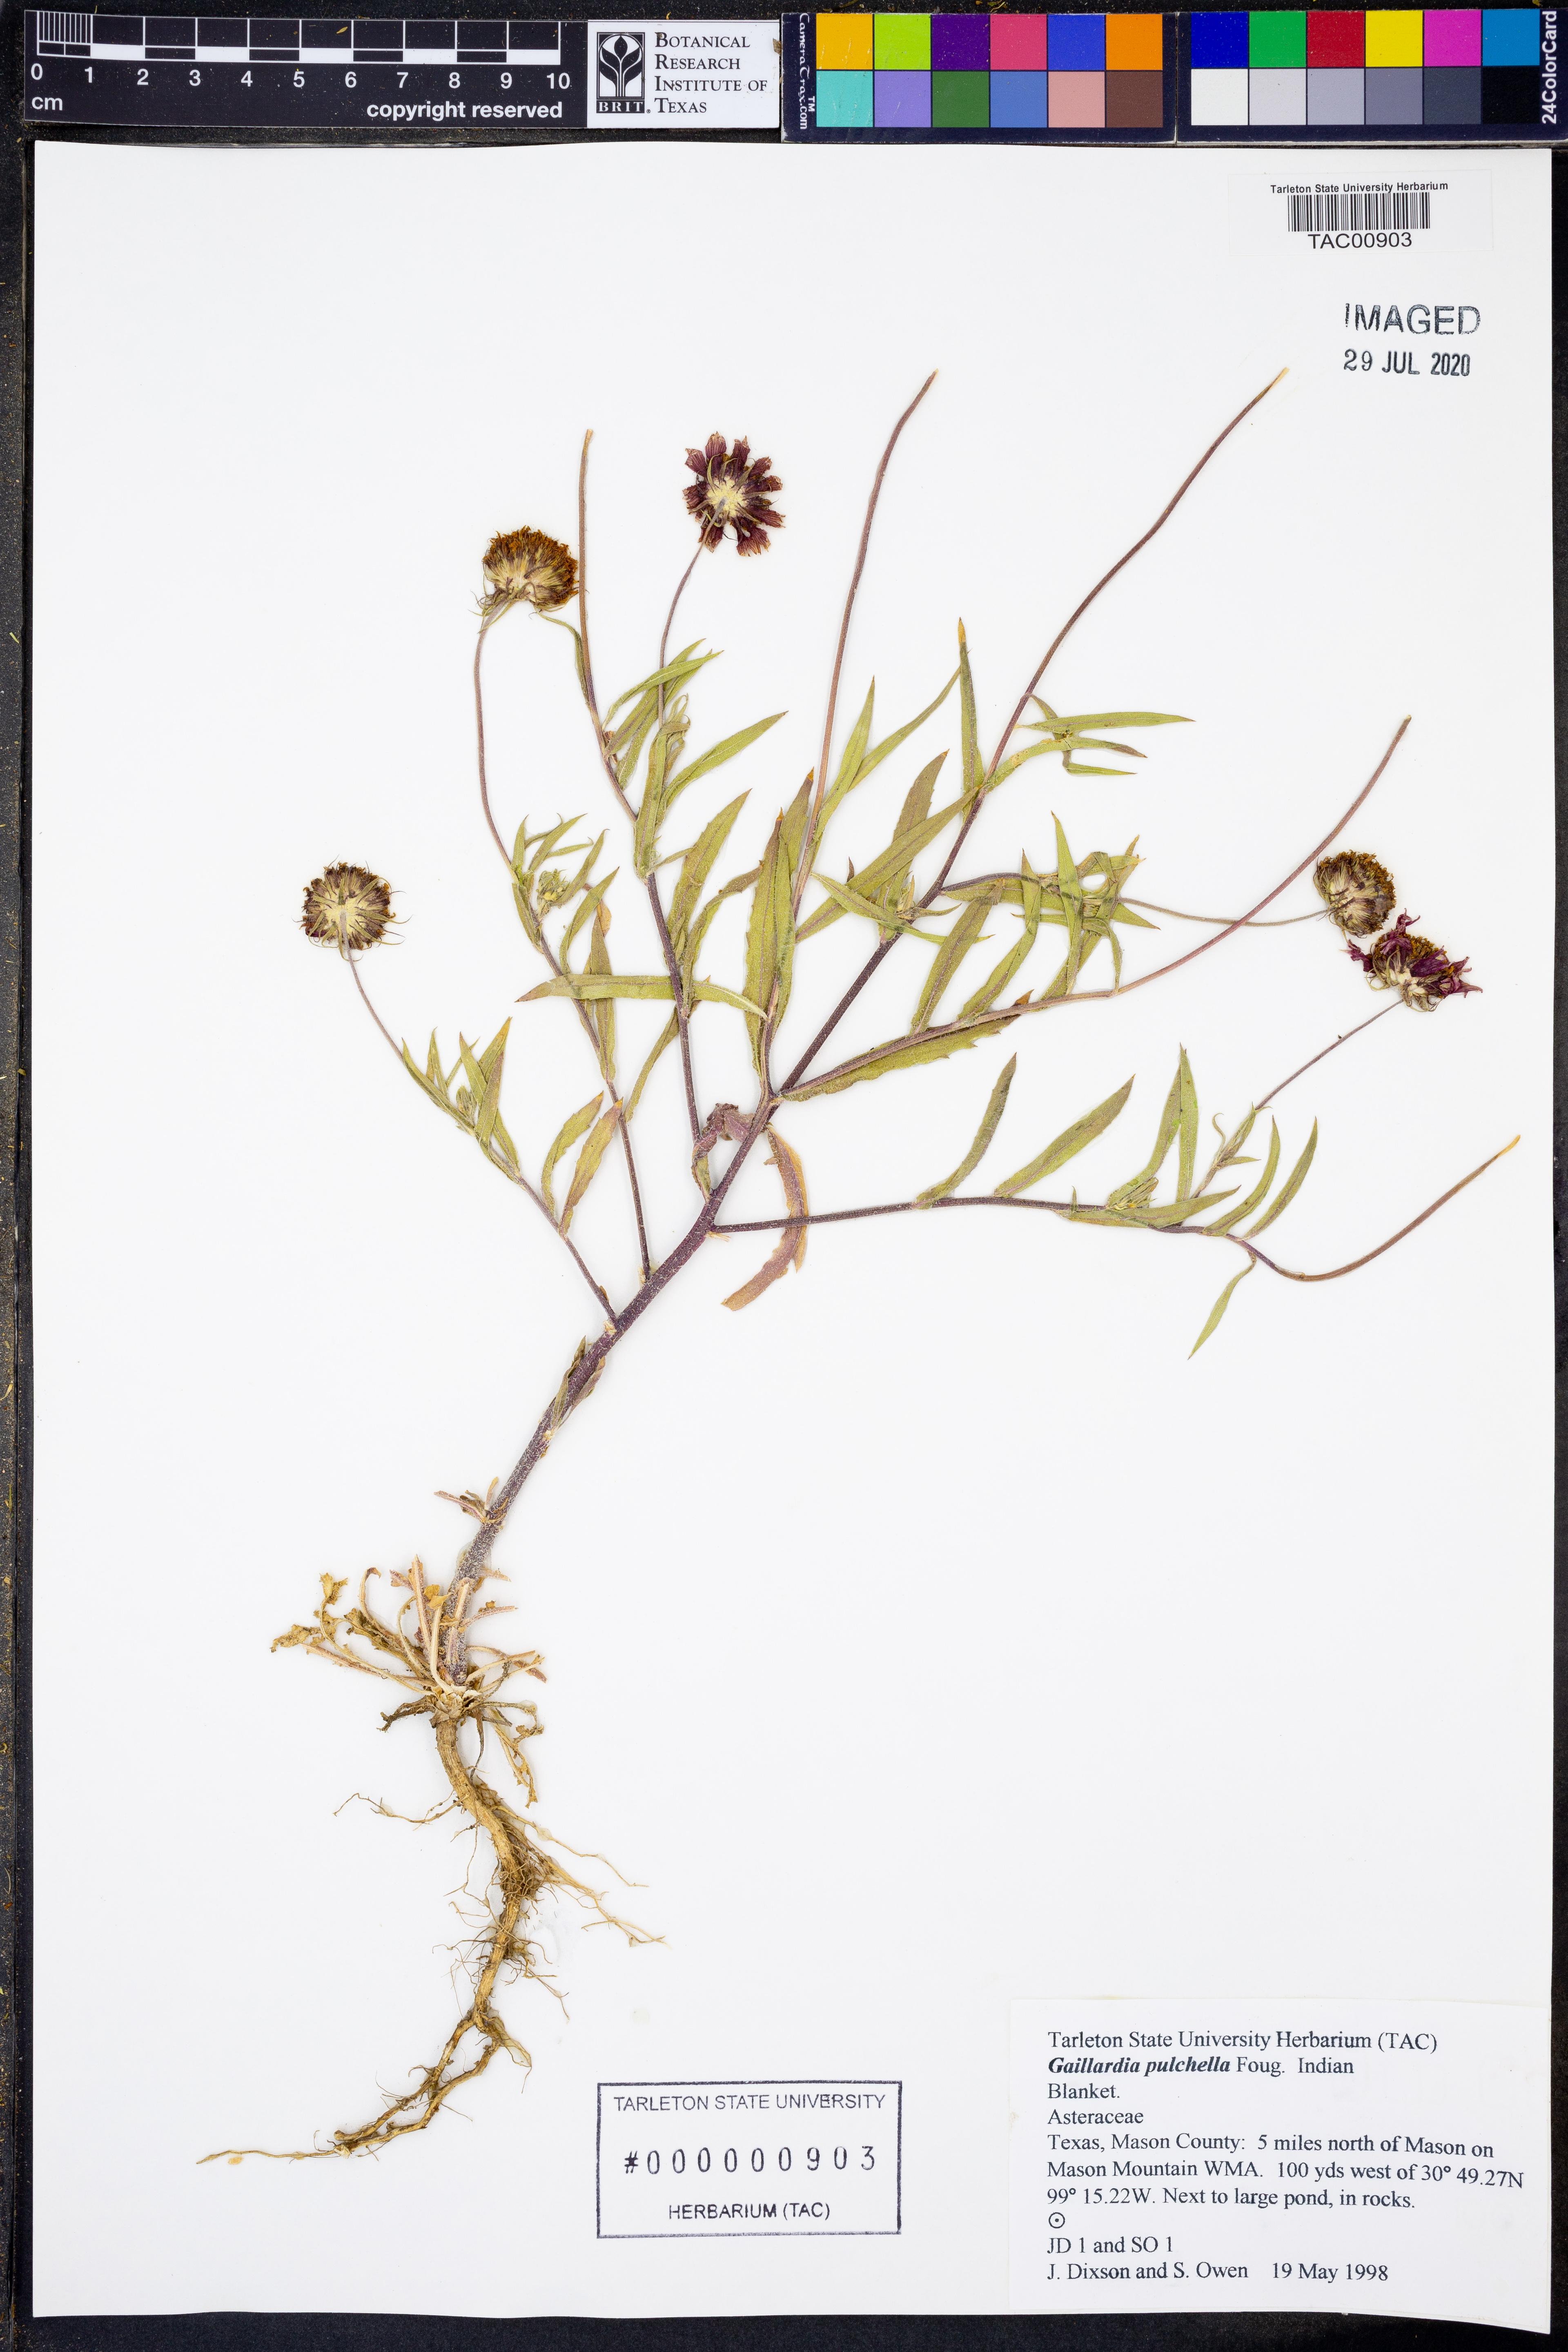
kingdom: Plantae
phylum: Tracheophyta
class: Magnoliopsida
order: Asterales
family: Asteraceae
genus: Gaillardia
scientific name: Gaillardia pulchella
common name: Firewheel
